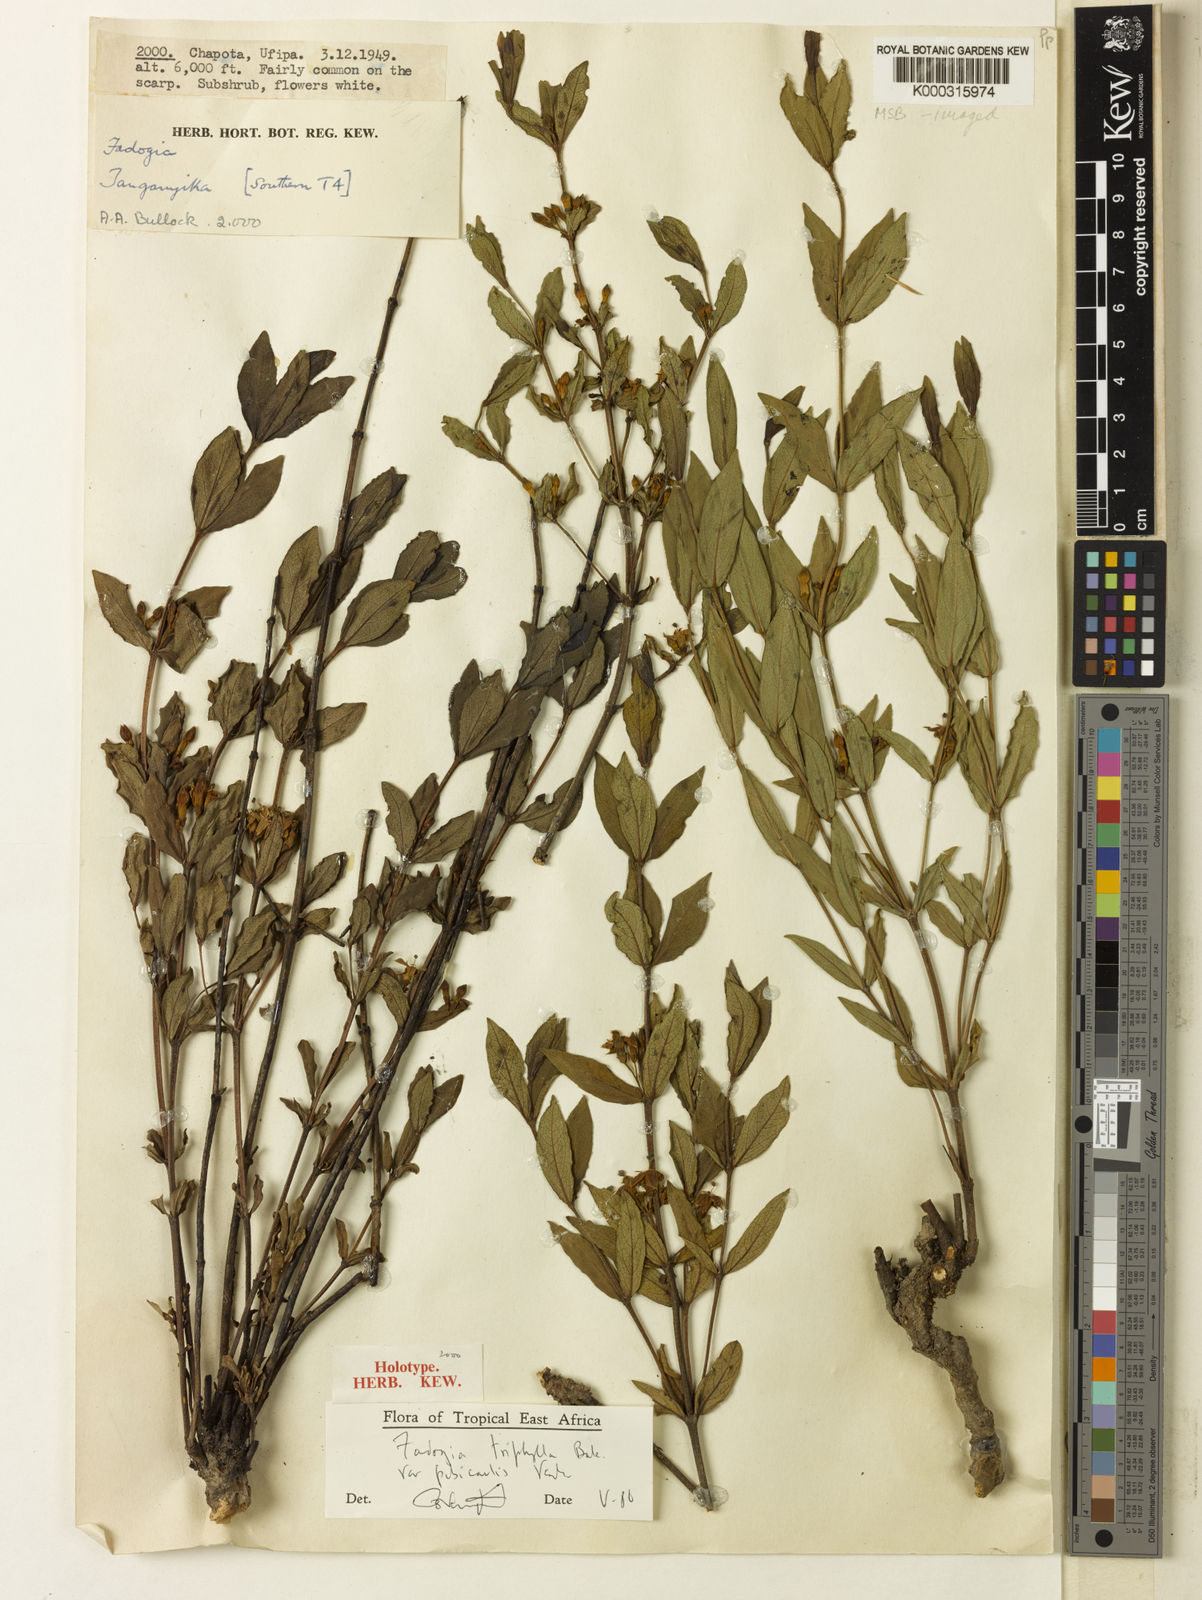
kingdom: Plantae
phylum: Tracheophyta
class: Magnoliopsida
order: Gentianales
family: Rubiaceae
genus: Fadogia
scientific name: Fadogia triphylla
